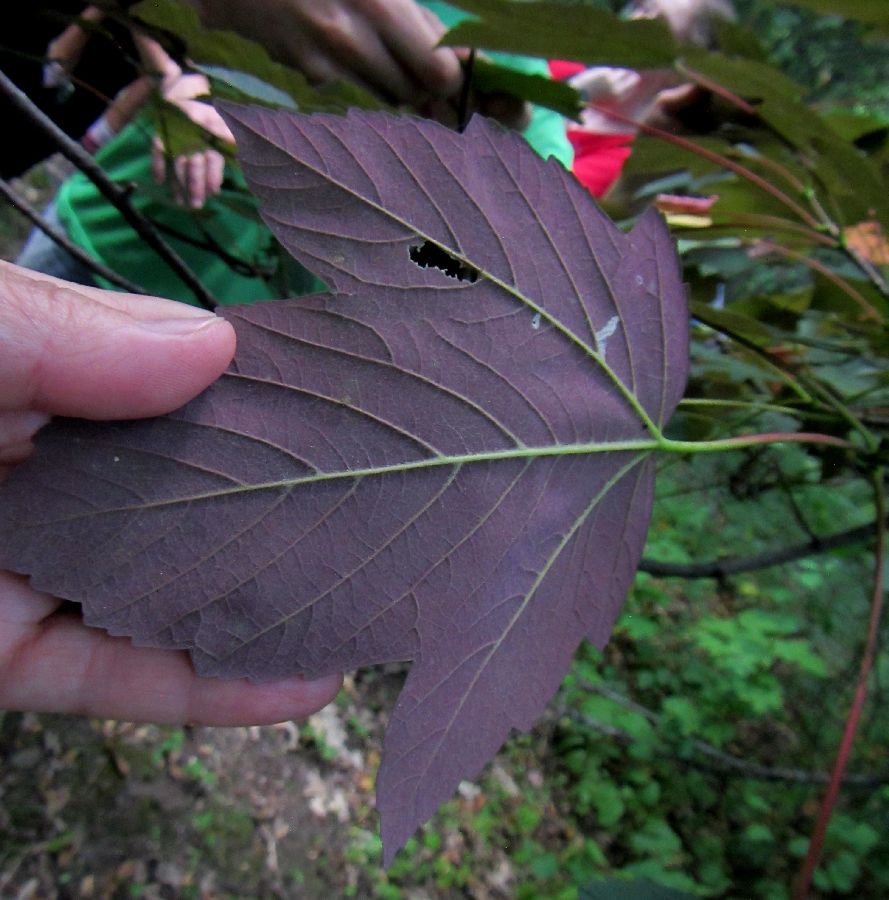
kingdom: Plantae
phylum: Tracheophyta
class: Magnoliopsida
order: Sapindales
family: Sapindaceae
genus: Acer
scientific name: Acer pseudoplatanus
